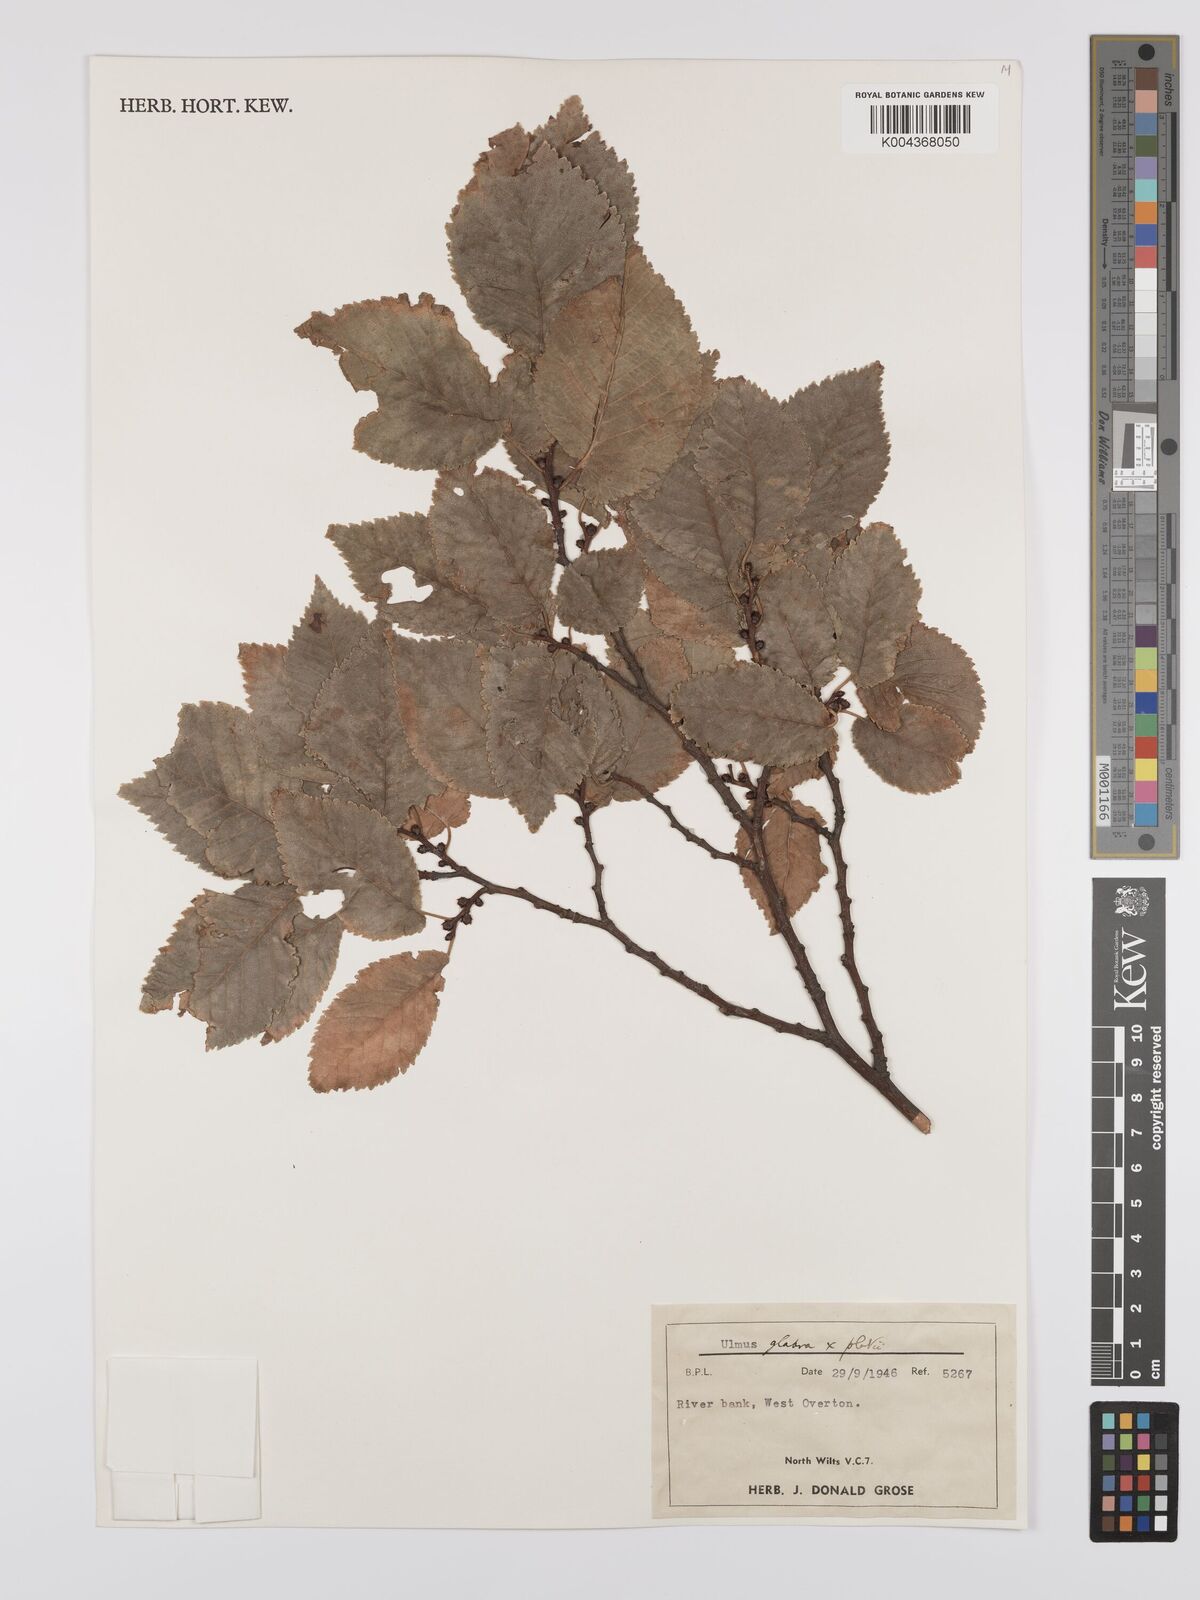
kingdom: Plantae
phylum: Tracheophyta
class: Magnoliopsida
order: Rosales
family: Ulmaceae
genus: Ulmus
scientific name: Ulmus
